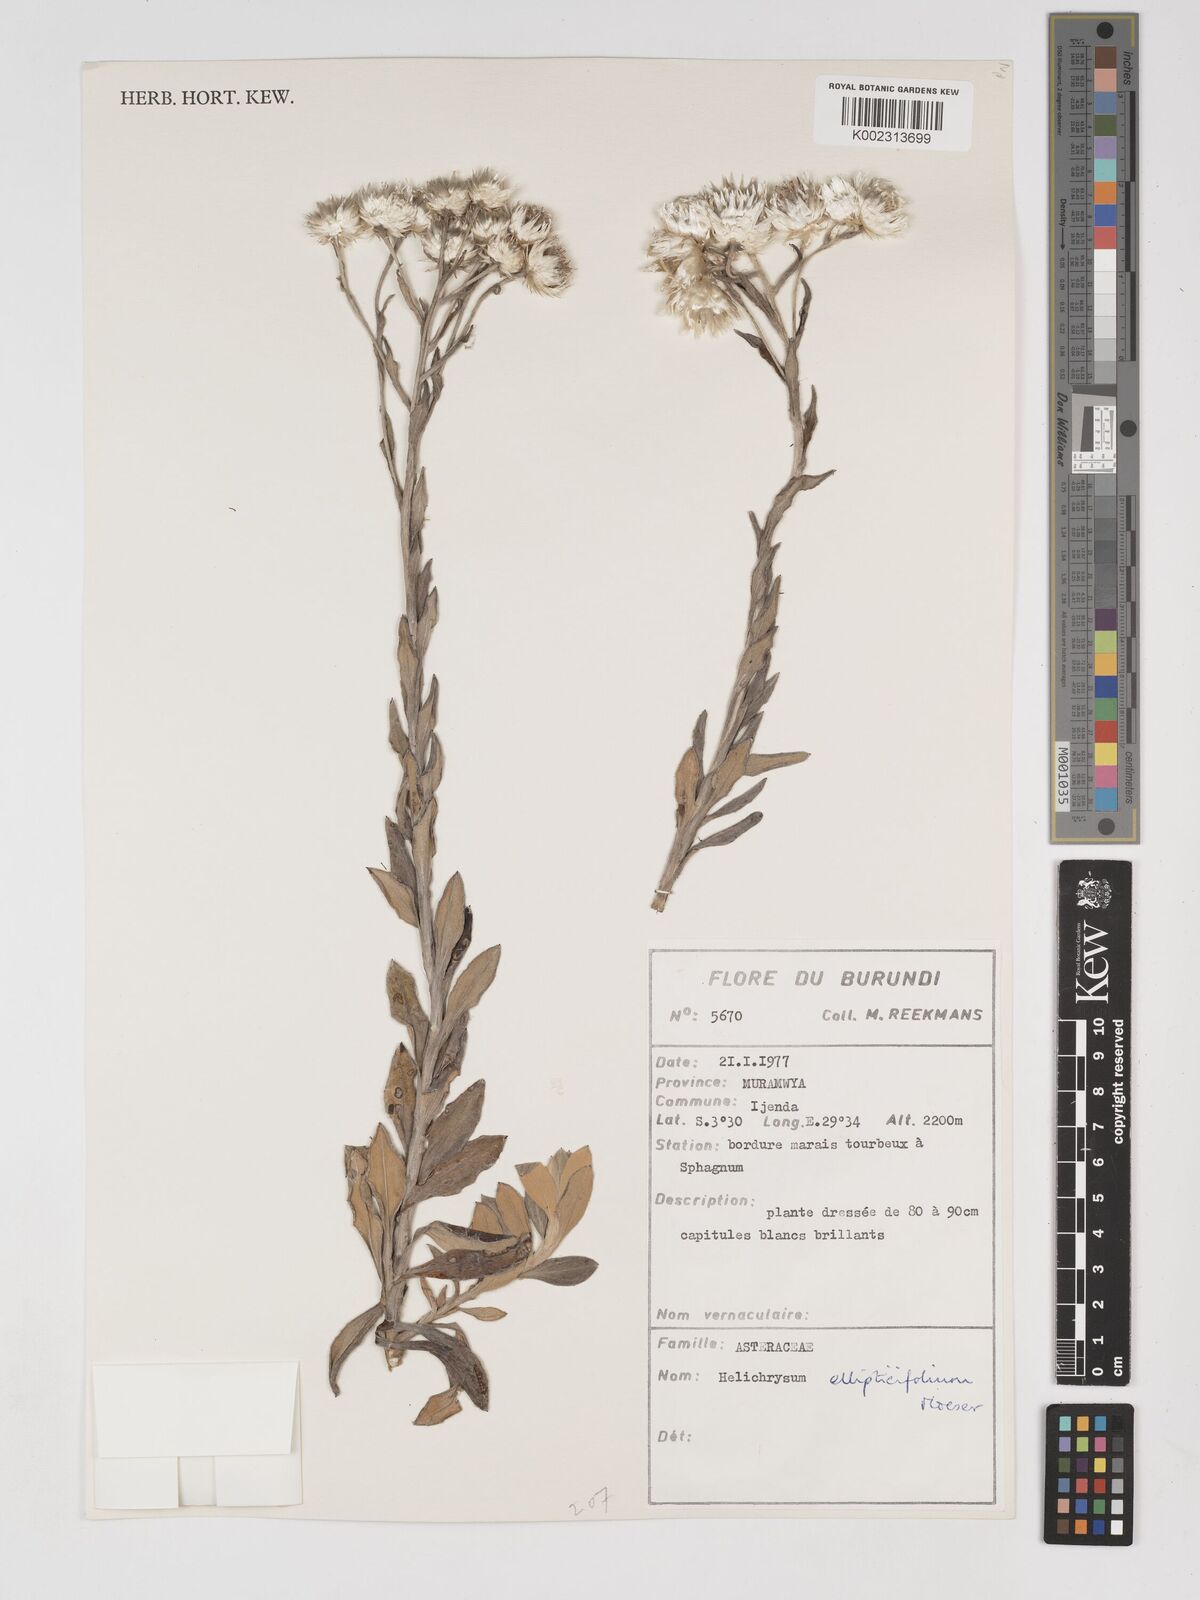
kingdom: Plantae
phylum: Tracheophyta
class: Magnoliopsida
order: Asterales
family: Asteraceae
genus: Helichrysum
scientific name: Helichrysum ellipticifolium
